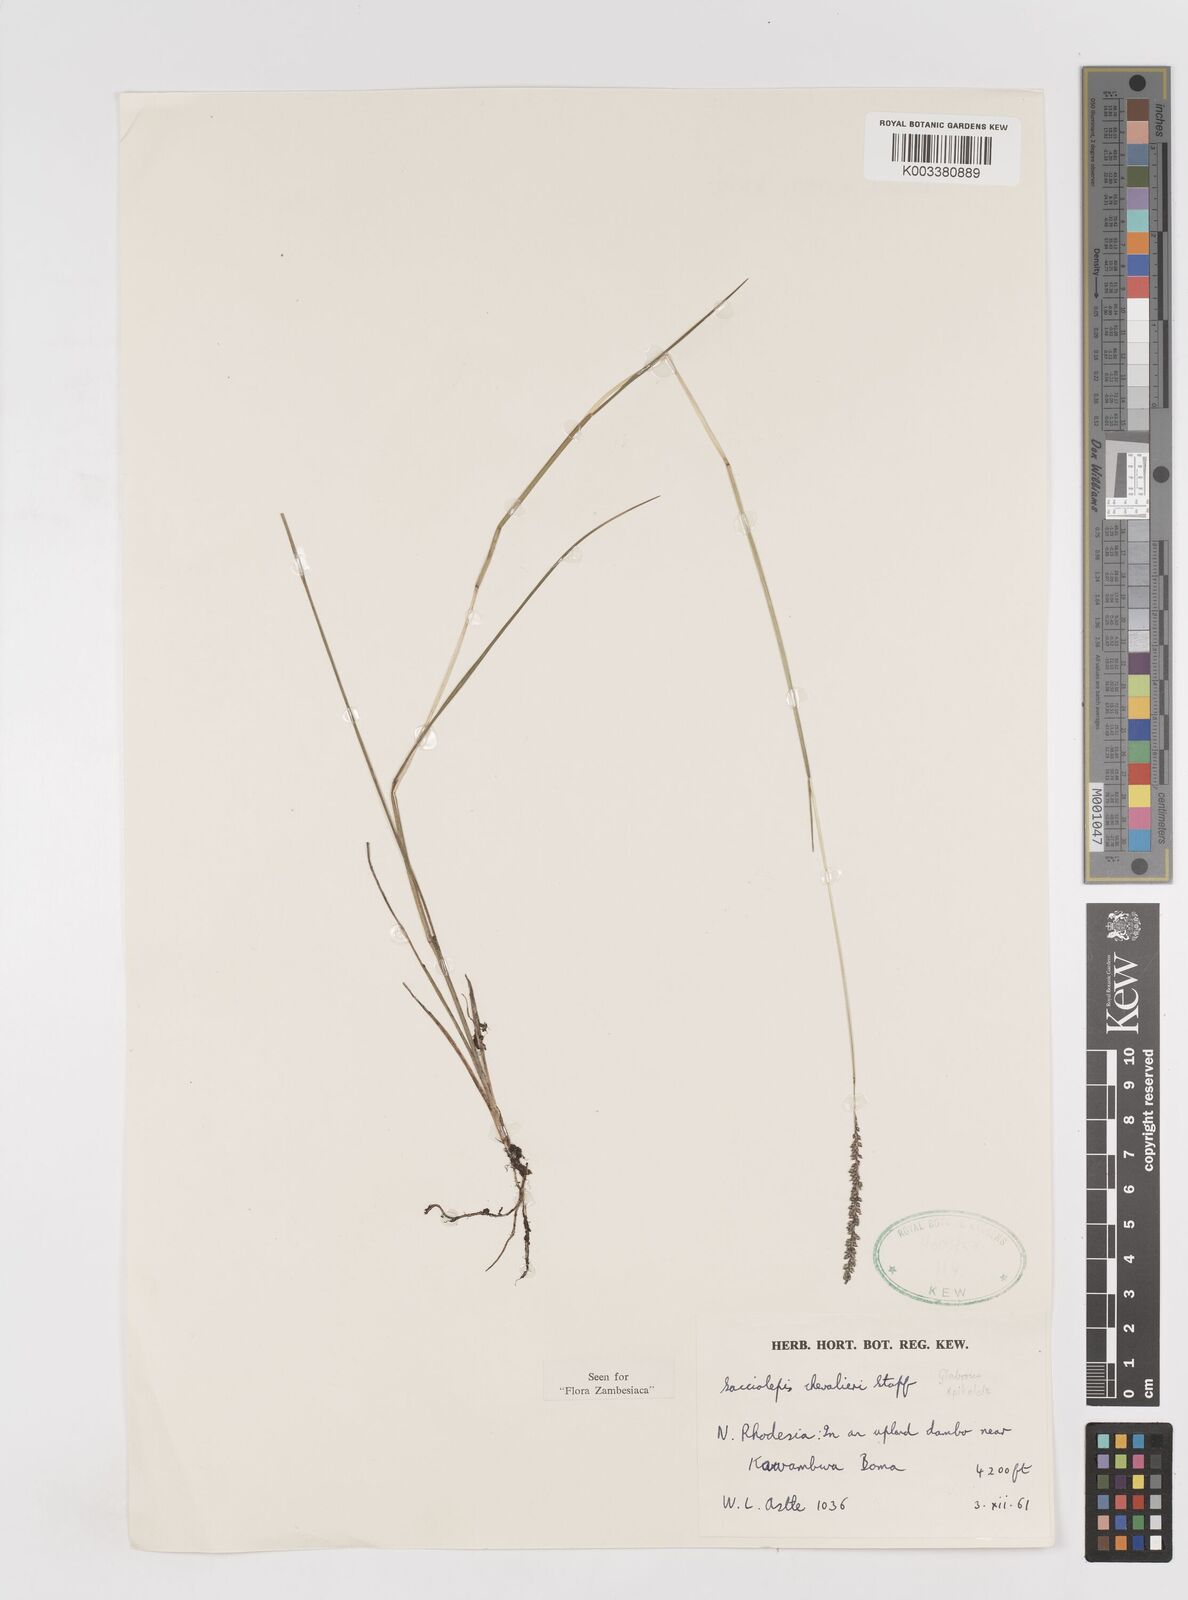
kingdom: Plantae
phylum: Tracheophyta
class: Liliopsida
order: Poales
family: Poaceae
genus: Sacciolepis
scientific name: Sacciolepis chevalieri
